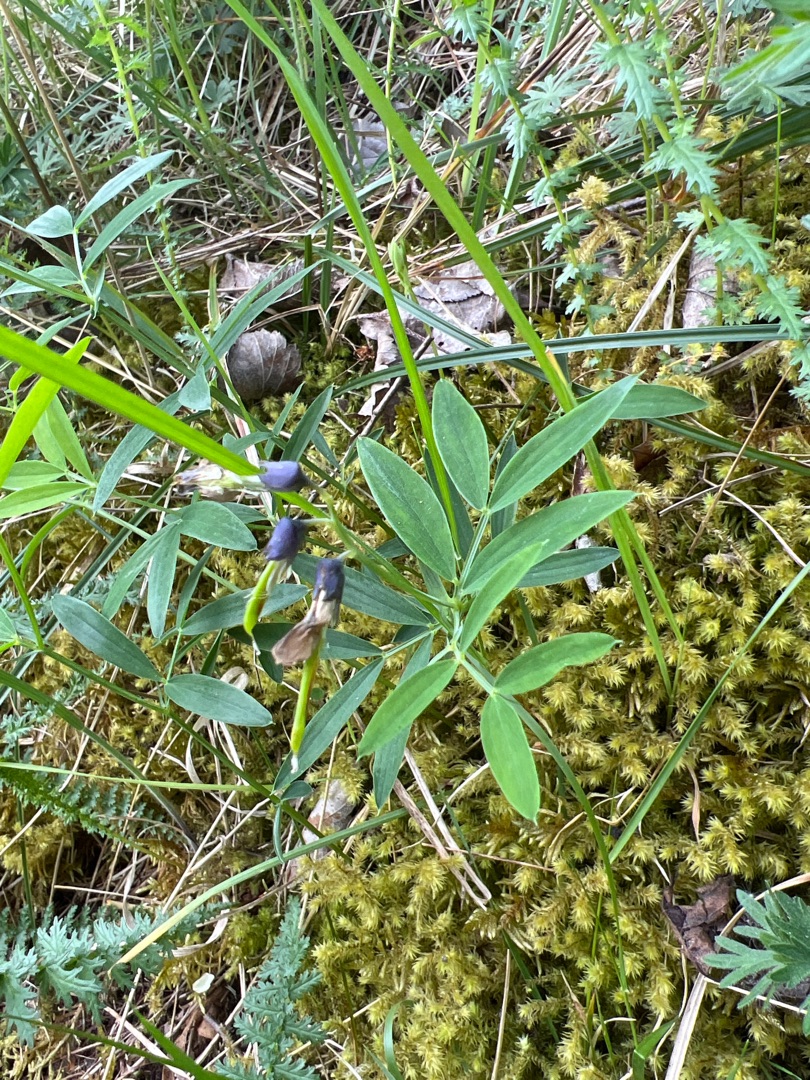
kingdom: Plantae
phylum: Tracheophyta
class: Magnoliopsida
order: Fabales
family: Fabaceae
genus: Lathyrus
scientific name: Lathyrus linifolius
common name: Krat-fladbælg
